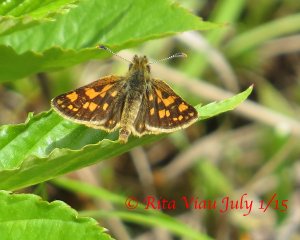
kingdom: Animalia
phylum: Arthropoda
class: Insecta
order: Lepidoptera
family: Hesperiidae
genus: Carterocephalus
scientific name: Carterocephalus palaemon
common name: Chequered Skipper
